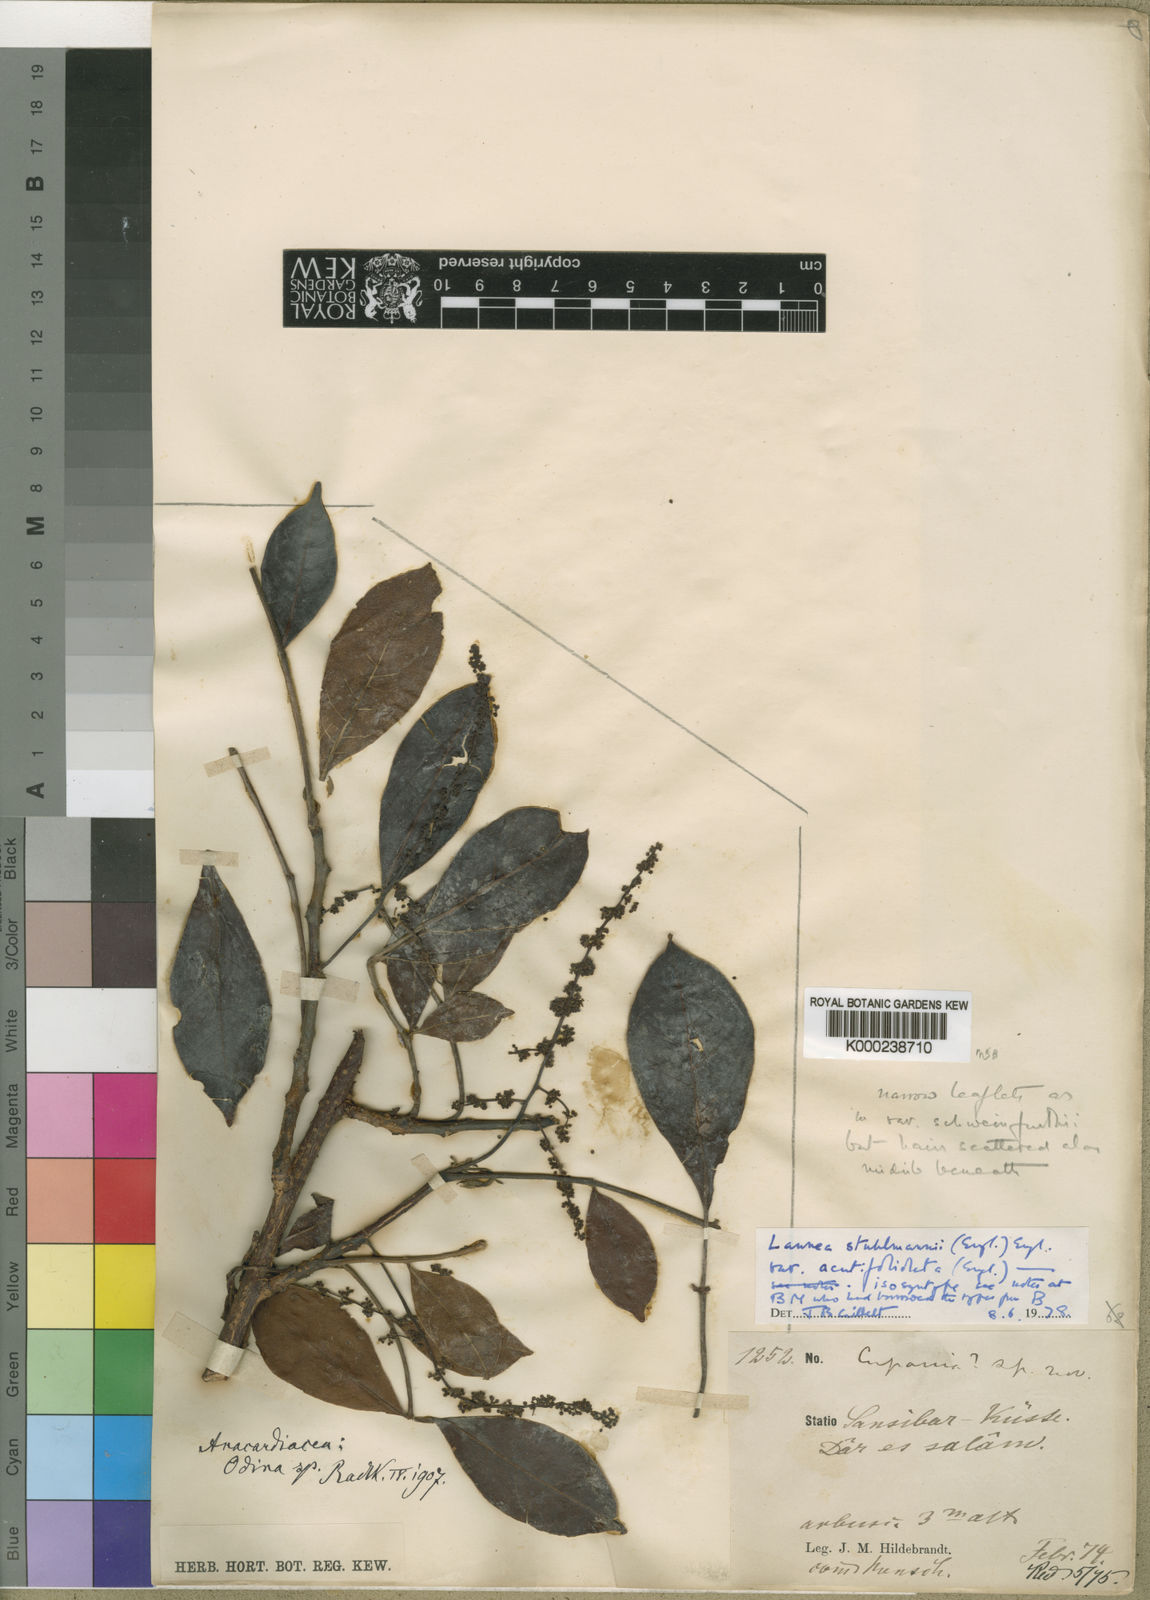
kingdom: Plantae
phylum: Tracheophyta
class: Magnoliopsida
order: Sapindales
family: Anacardiaceae
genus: Lannea
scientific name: Lannea schweinfurthii
